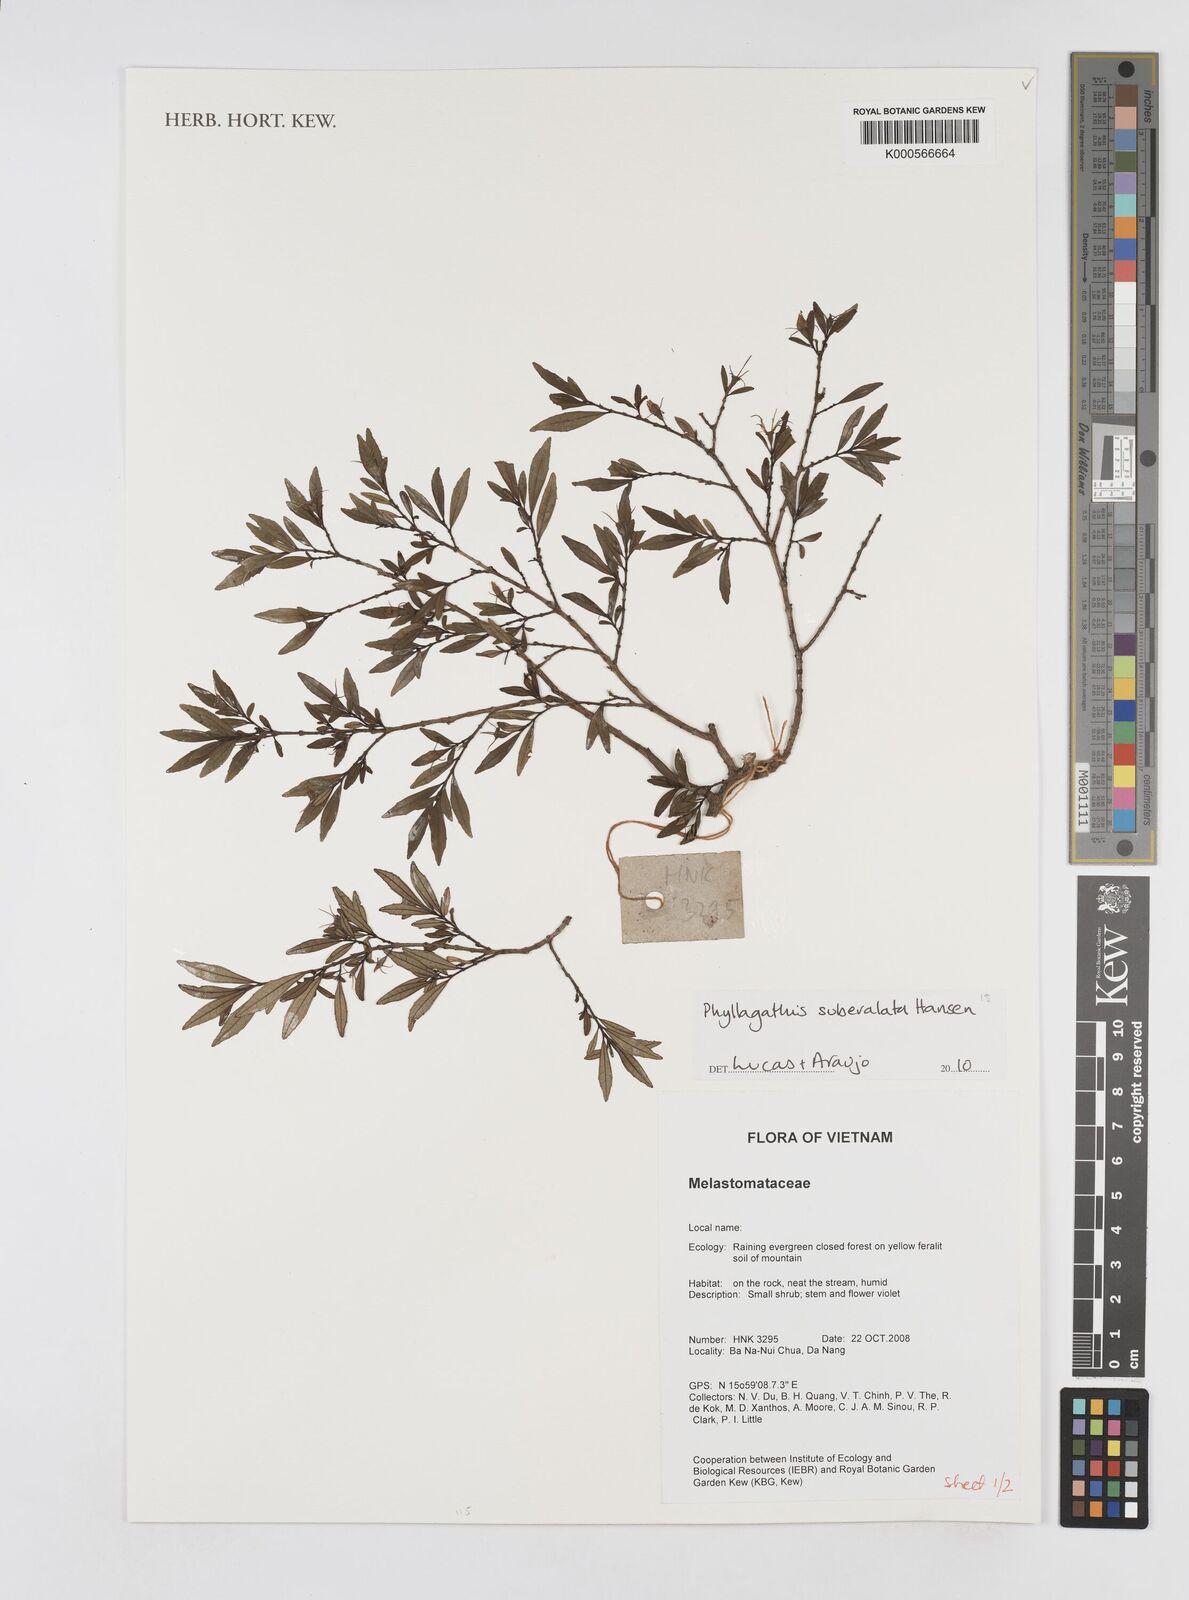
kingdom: Plantae
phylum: Tracheophyta
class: Magnoliopsida
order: Myrtales
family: Melastomataceae
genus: Phyllagathis
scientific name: Phyllagathis suberalata
